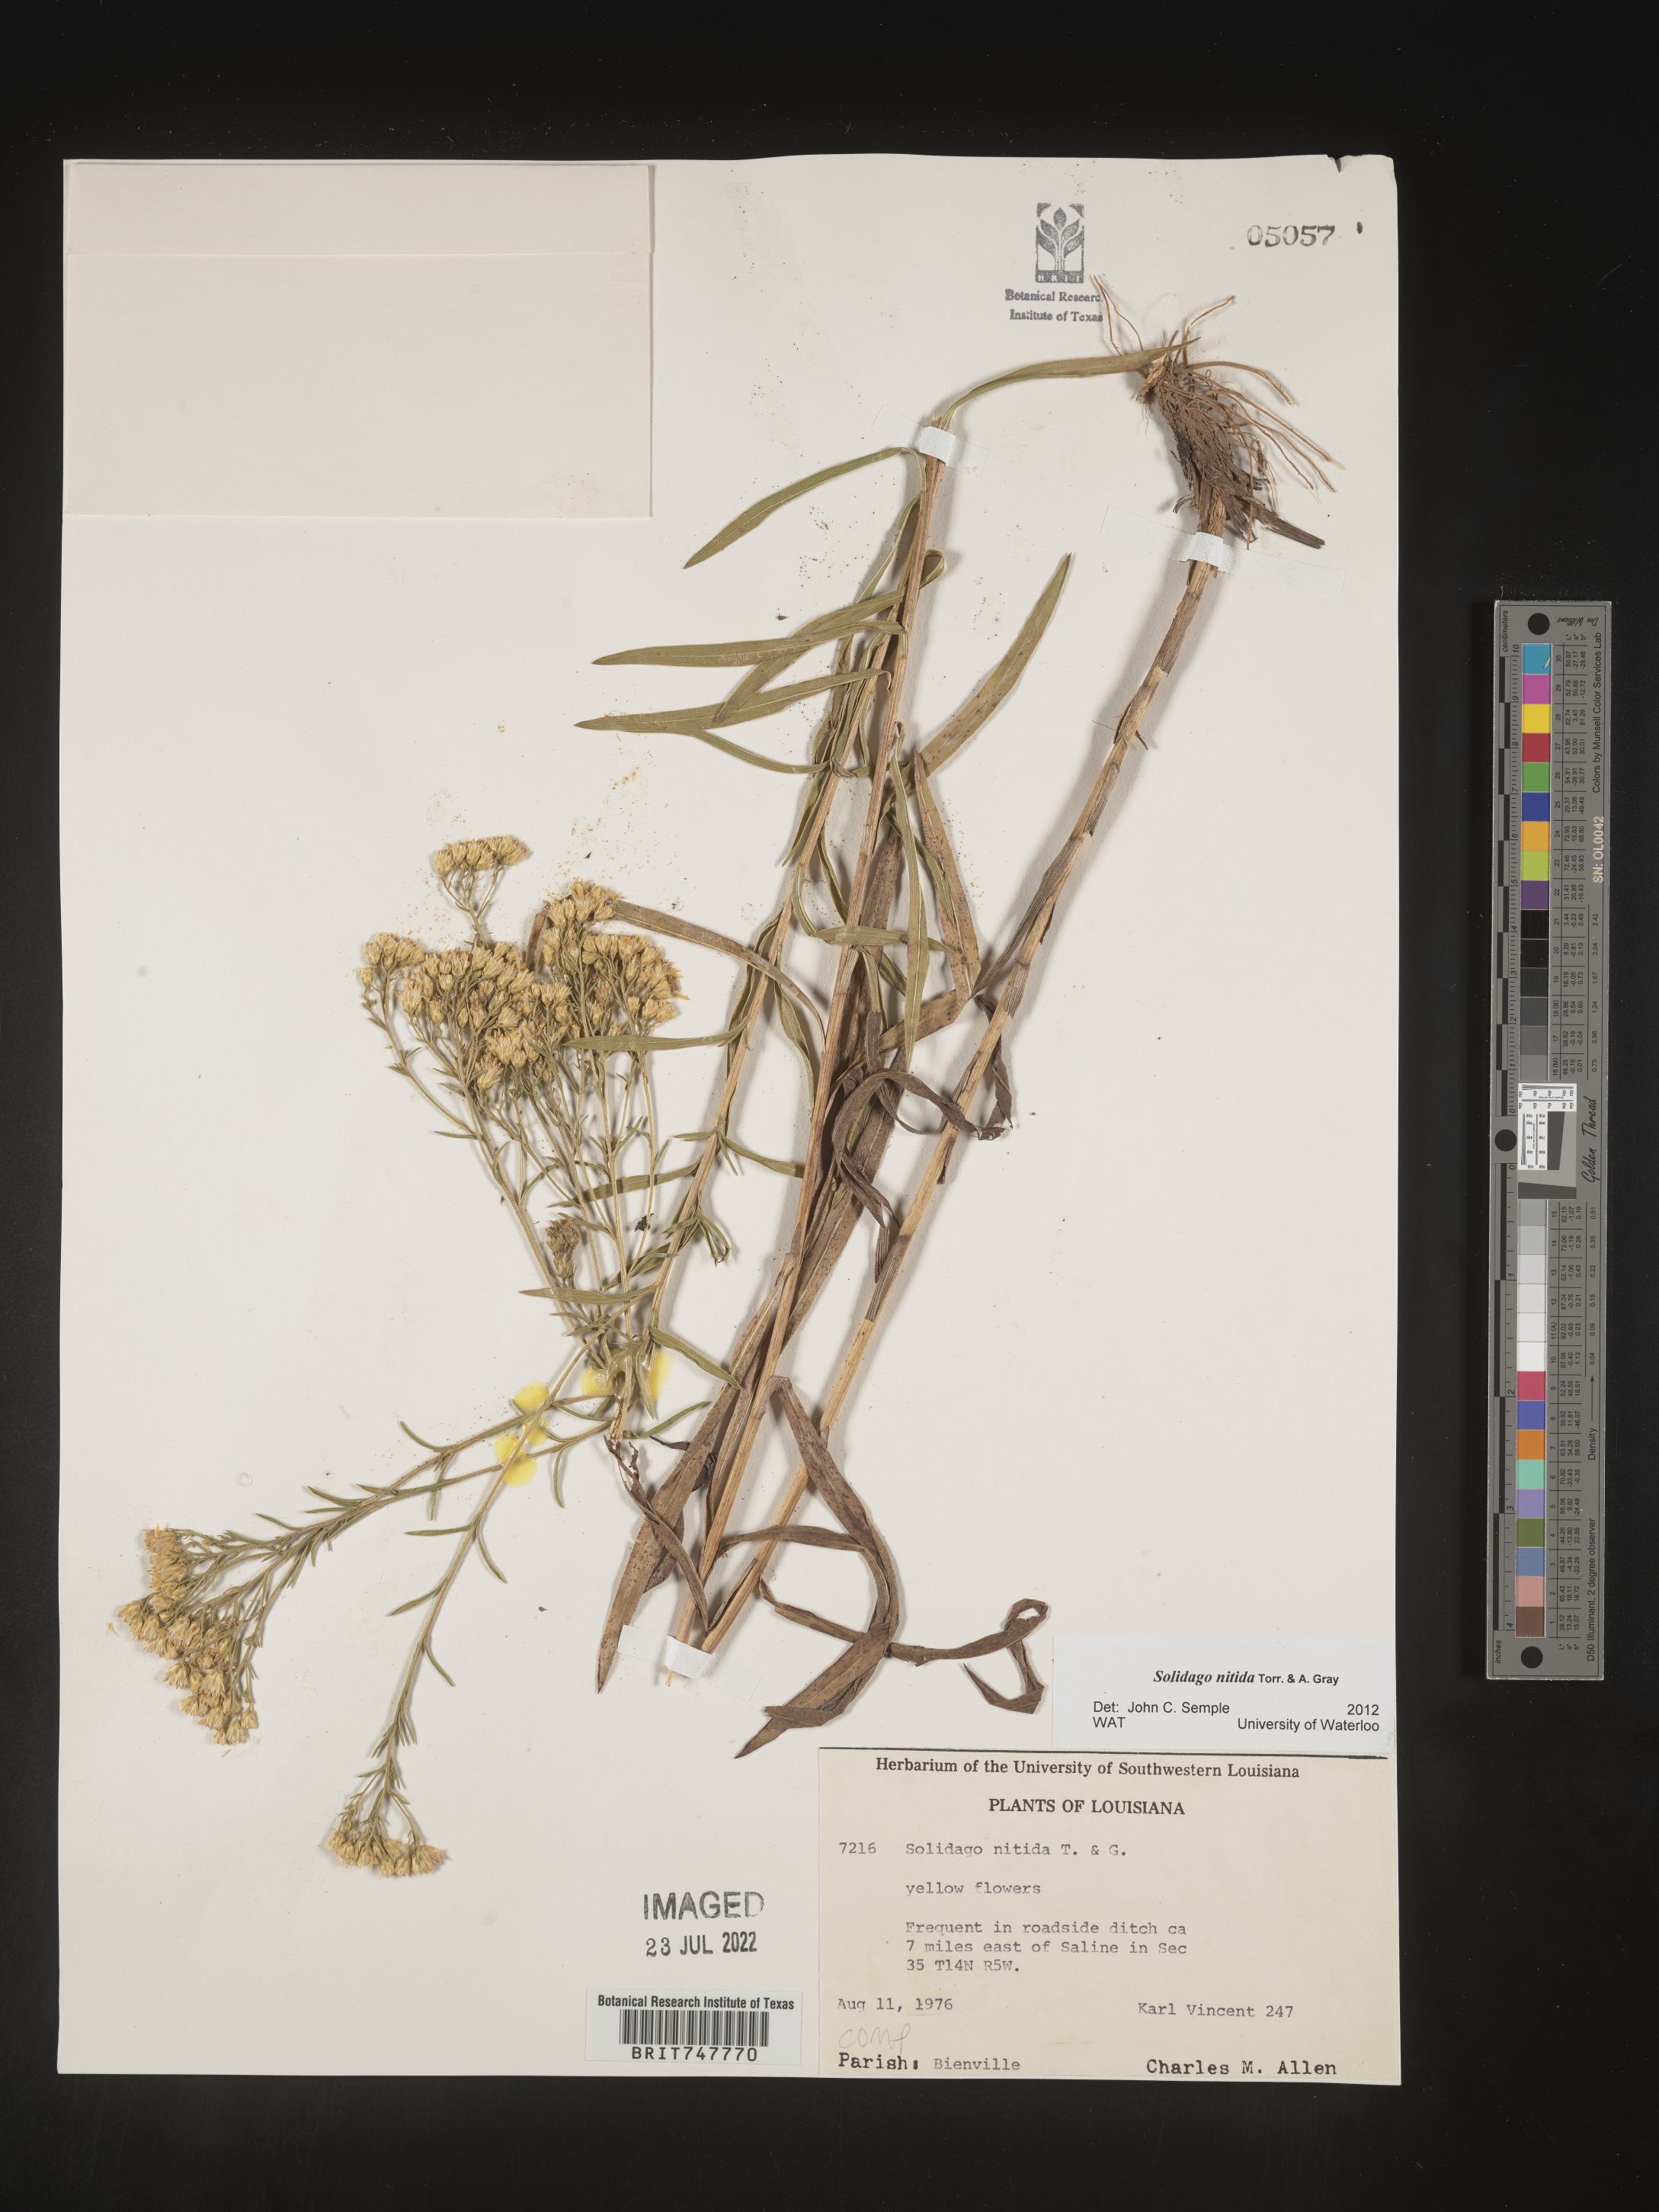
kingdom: Plantae
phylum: Tracheophyta
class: Magnoliopsida
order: Asterales
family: Asteraceae
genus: Solidago
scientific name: Solidago nitida
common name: Shiny goldenrod
